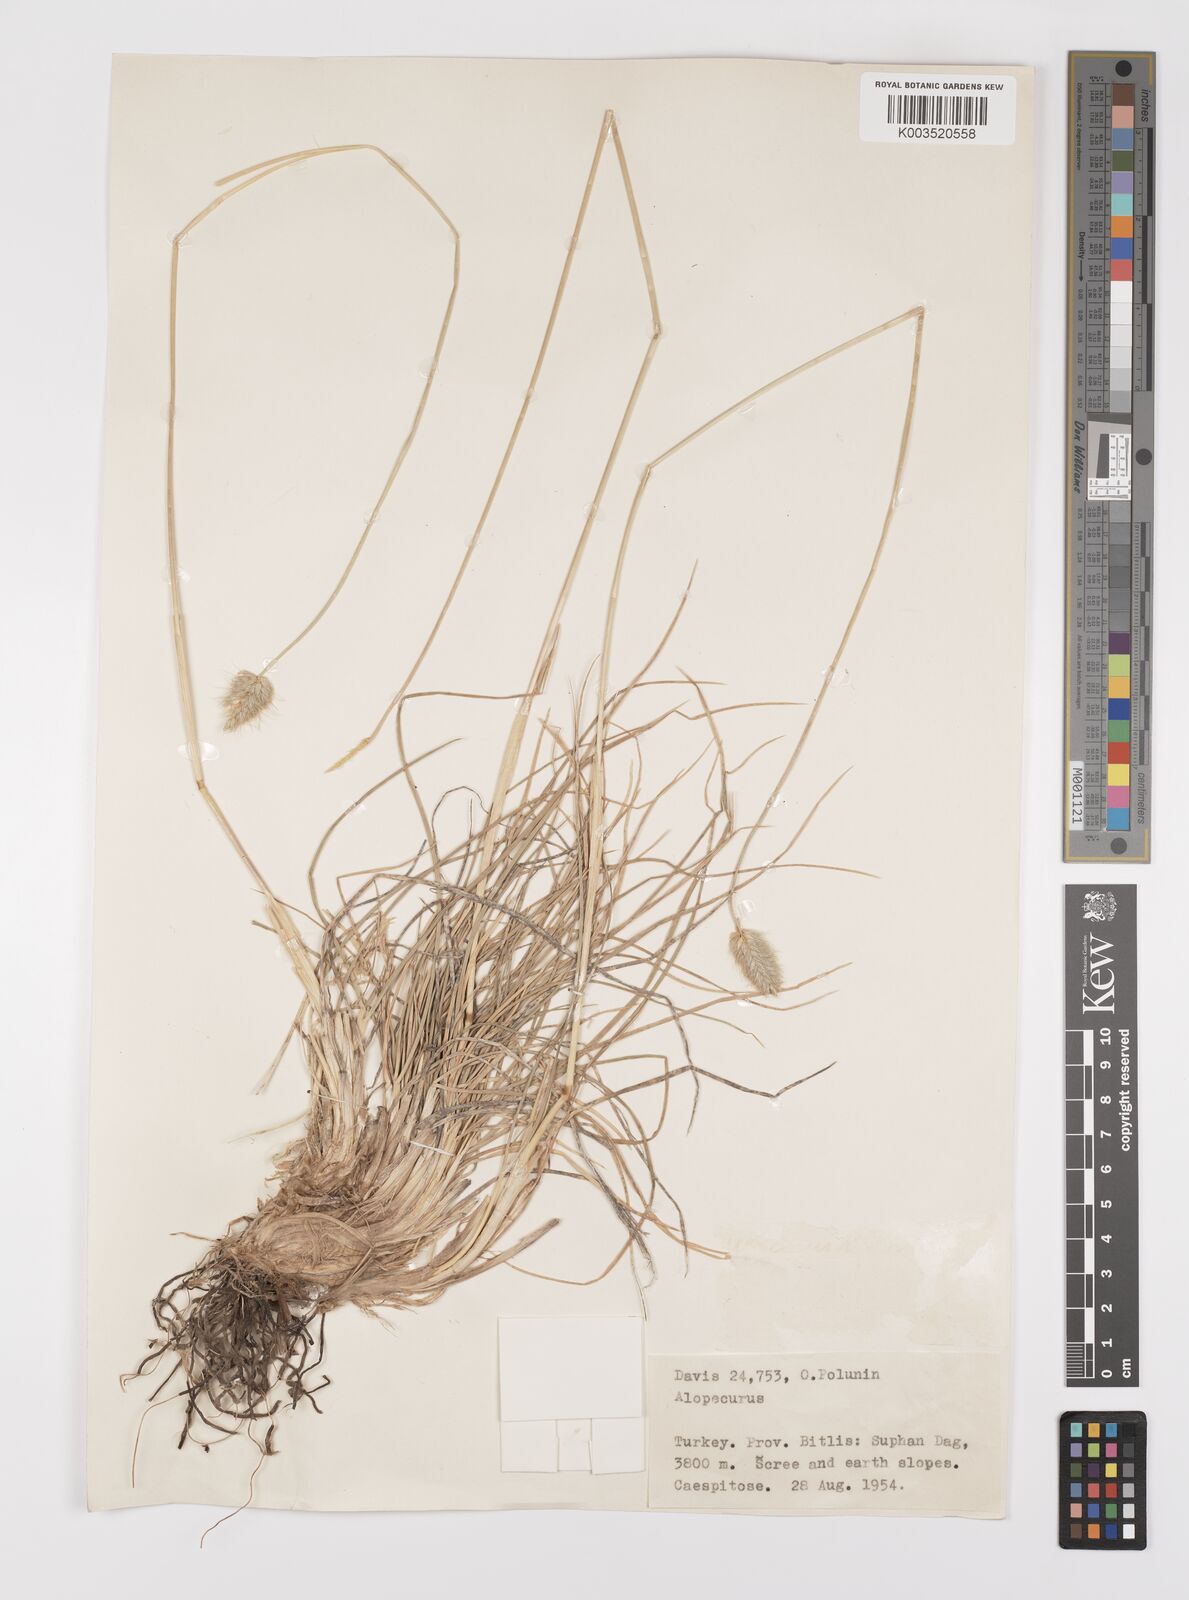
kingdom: Plantae
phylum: Tracheophyta
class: Liliopsida
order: Poales
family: Poaceae
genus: Alopecurus
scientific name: Alopecurus textilis
